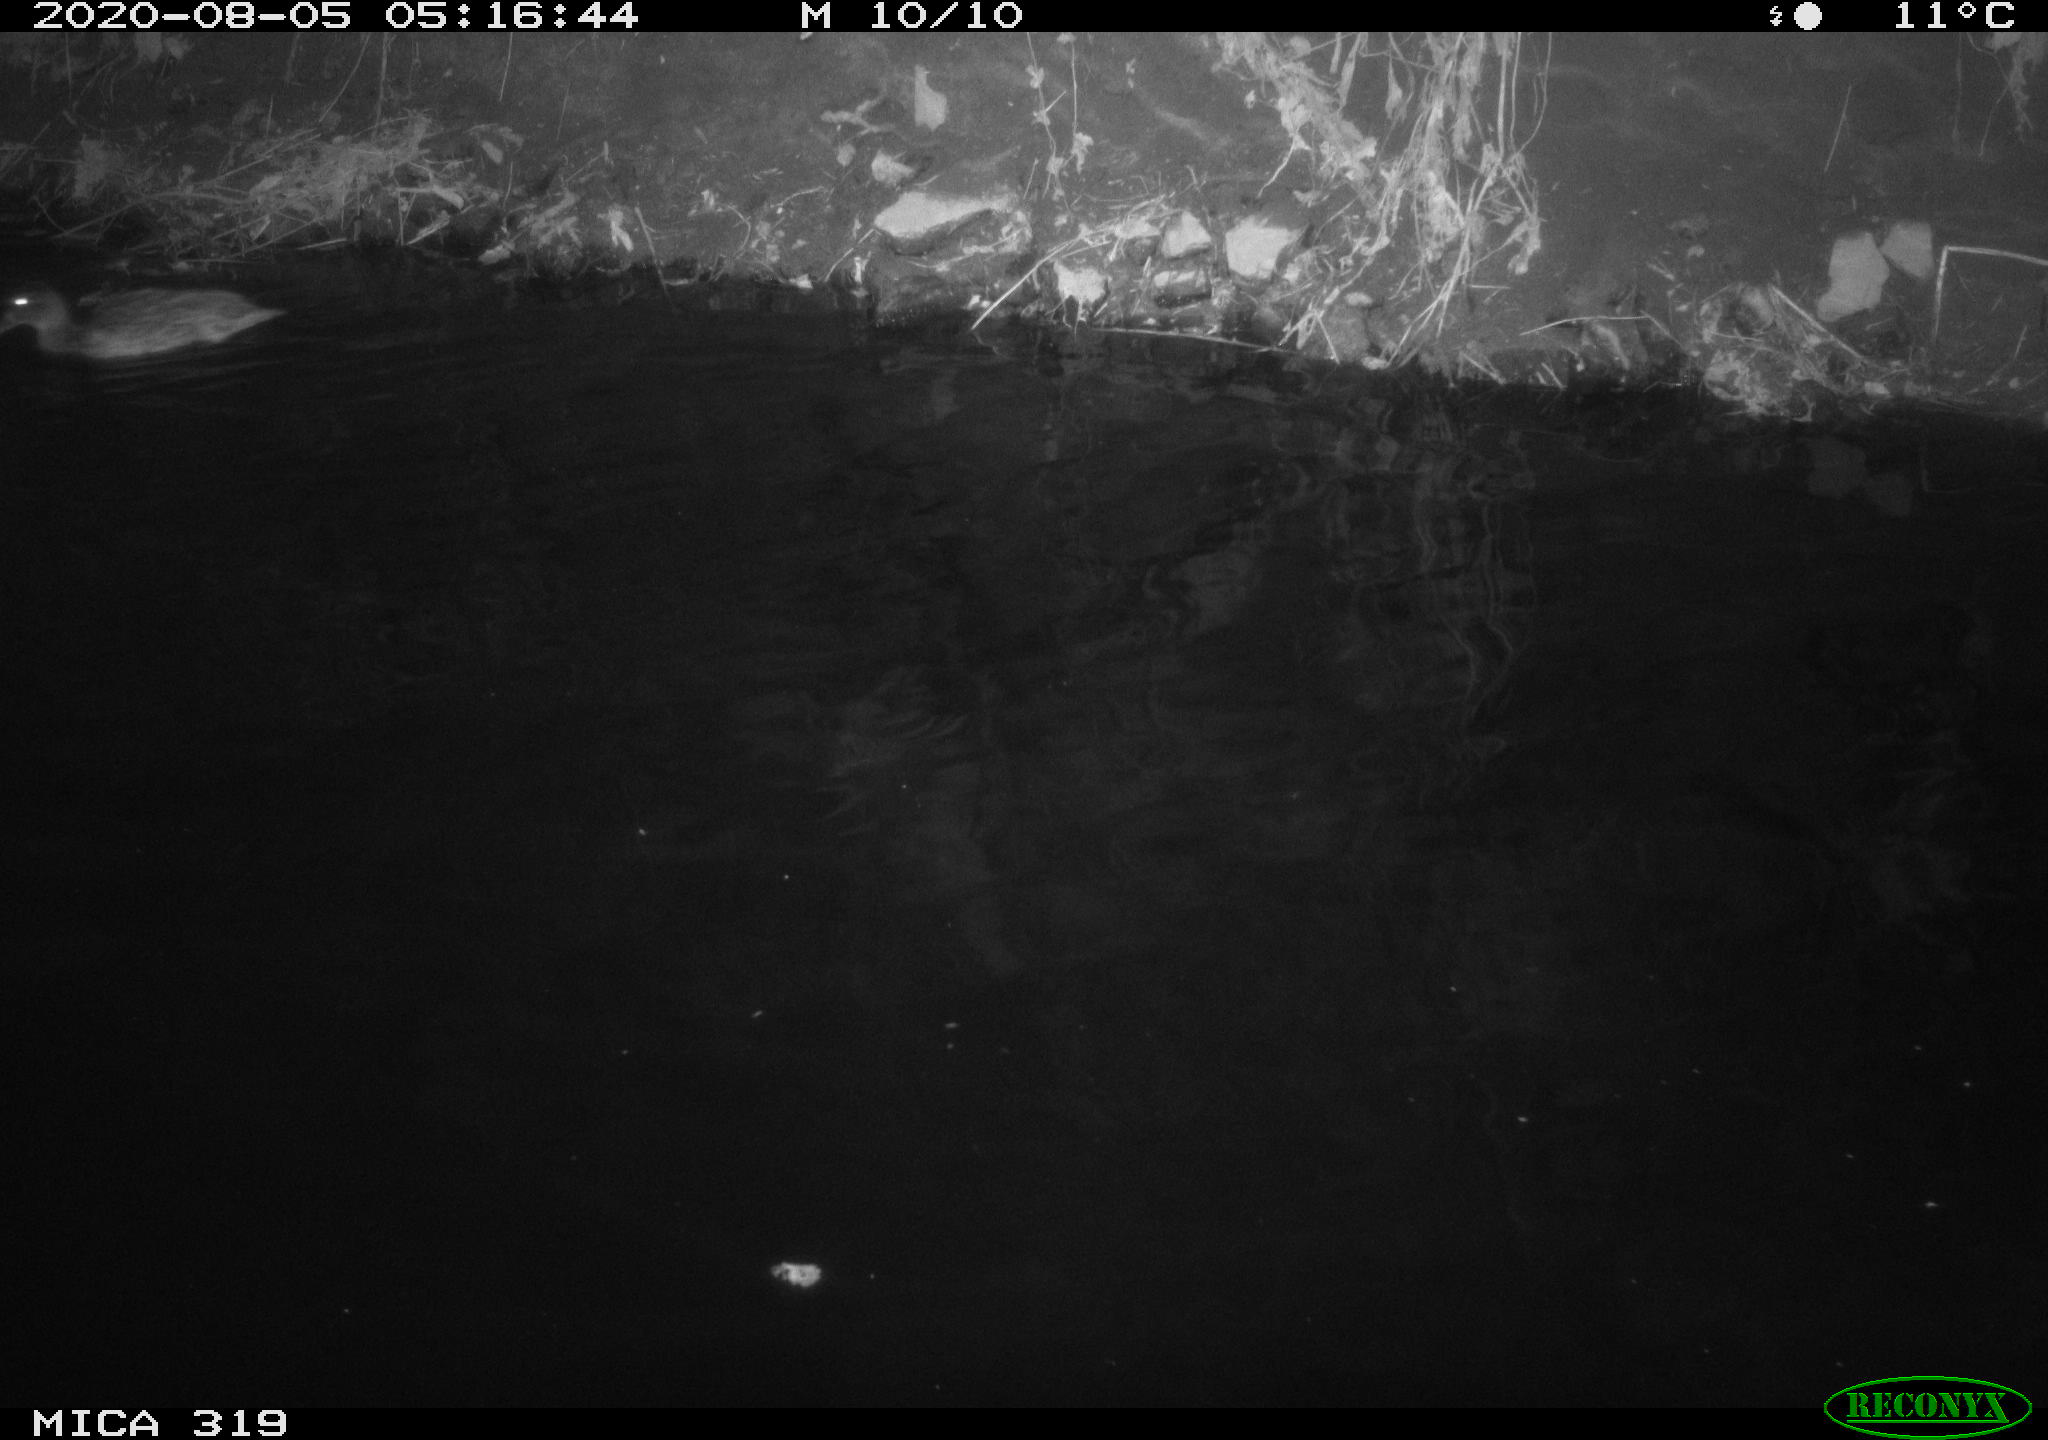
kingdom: Animalia
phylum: Chordata
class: Aves
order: Anseriformes
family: Anatidae
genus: Anas
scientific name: Anas platyrhynchos
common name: Mallard
